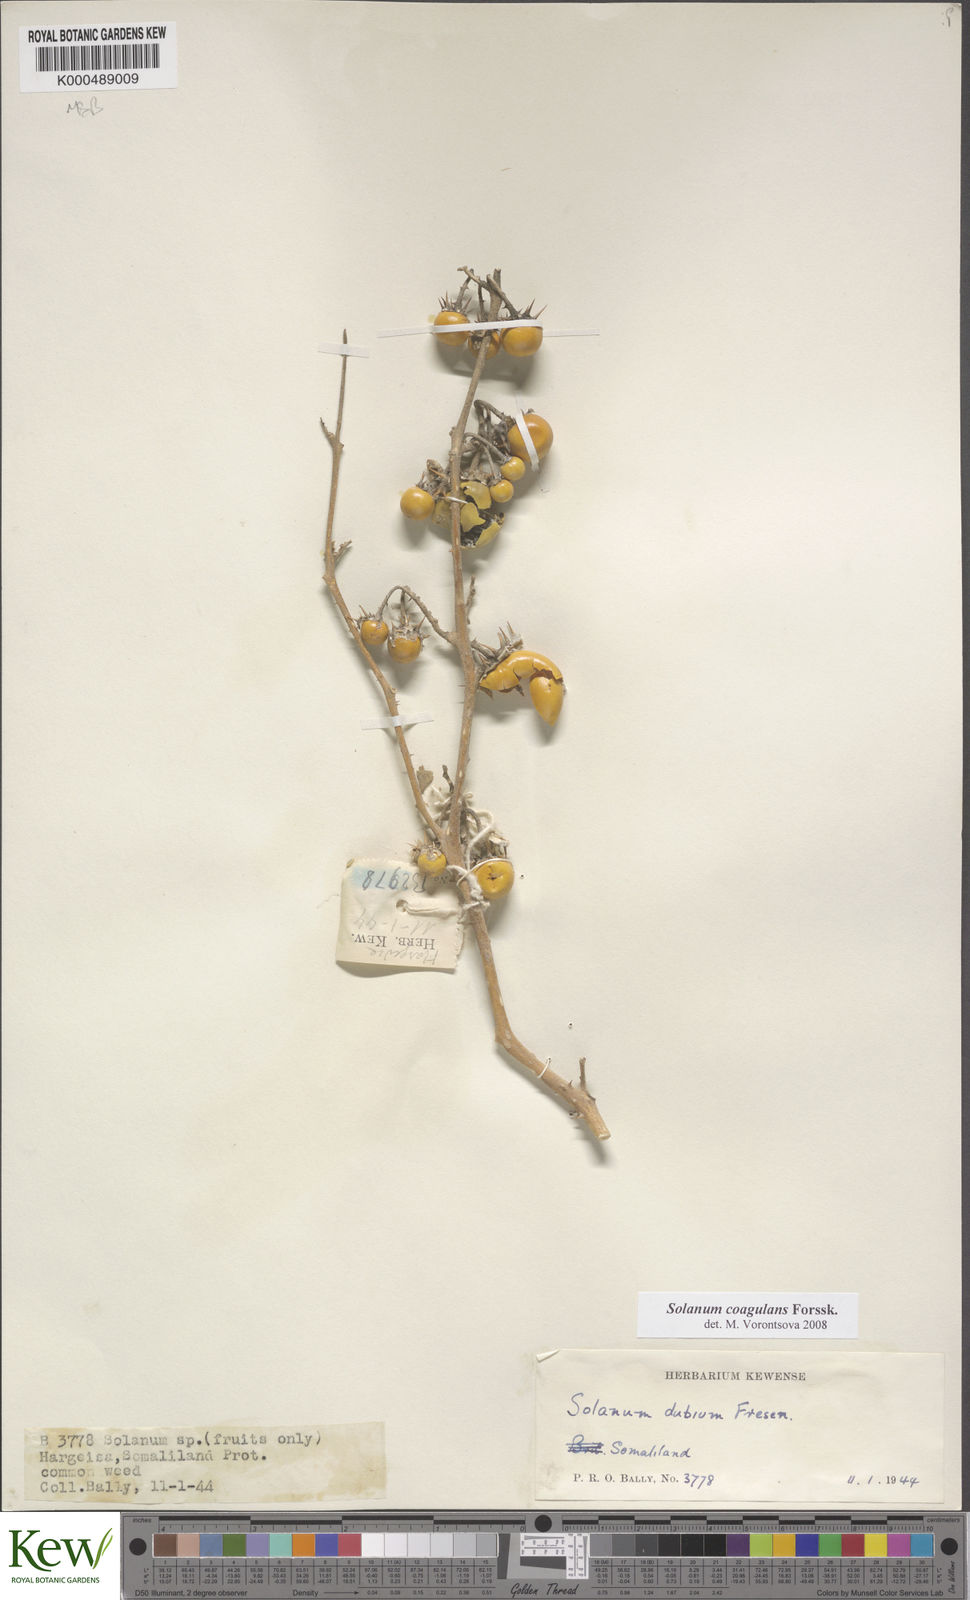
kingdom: Plantae
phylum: Tracheophyta
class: Magnoliopsida
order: Solanales
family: Solanaceae
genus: Solanum
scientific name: Solanum coagulans
